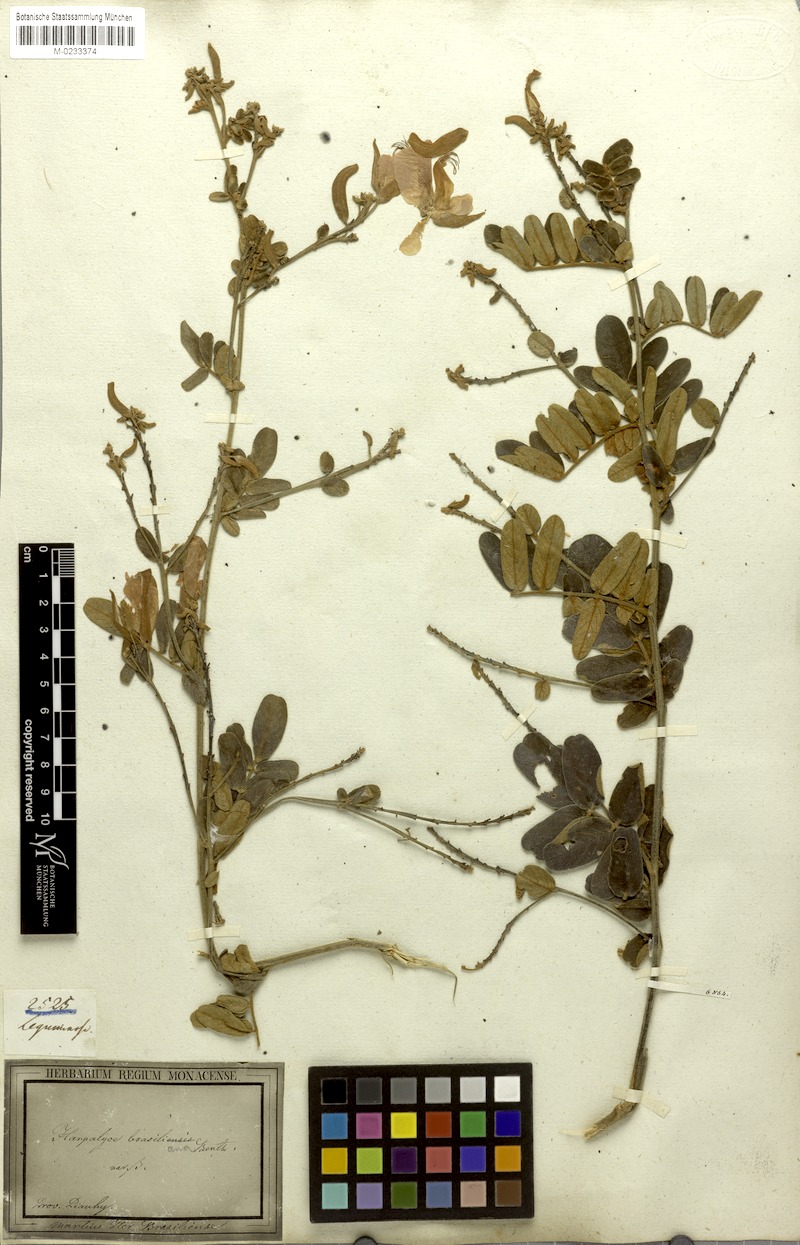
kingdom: Plantae
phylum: Tracheophyta
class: Magnoliopsida
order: Fabales
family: Fabaceae
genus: Harpalyce
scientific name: Harpalyce brasiliana
